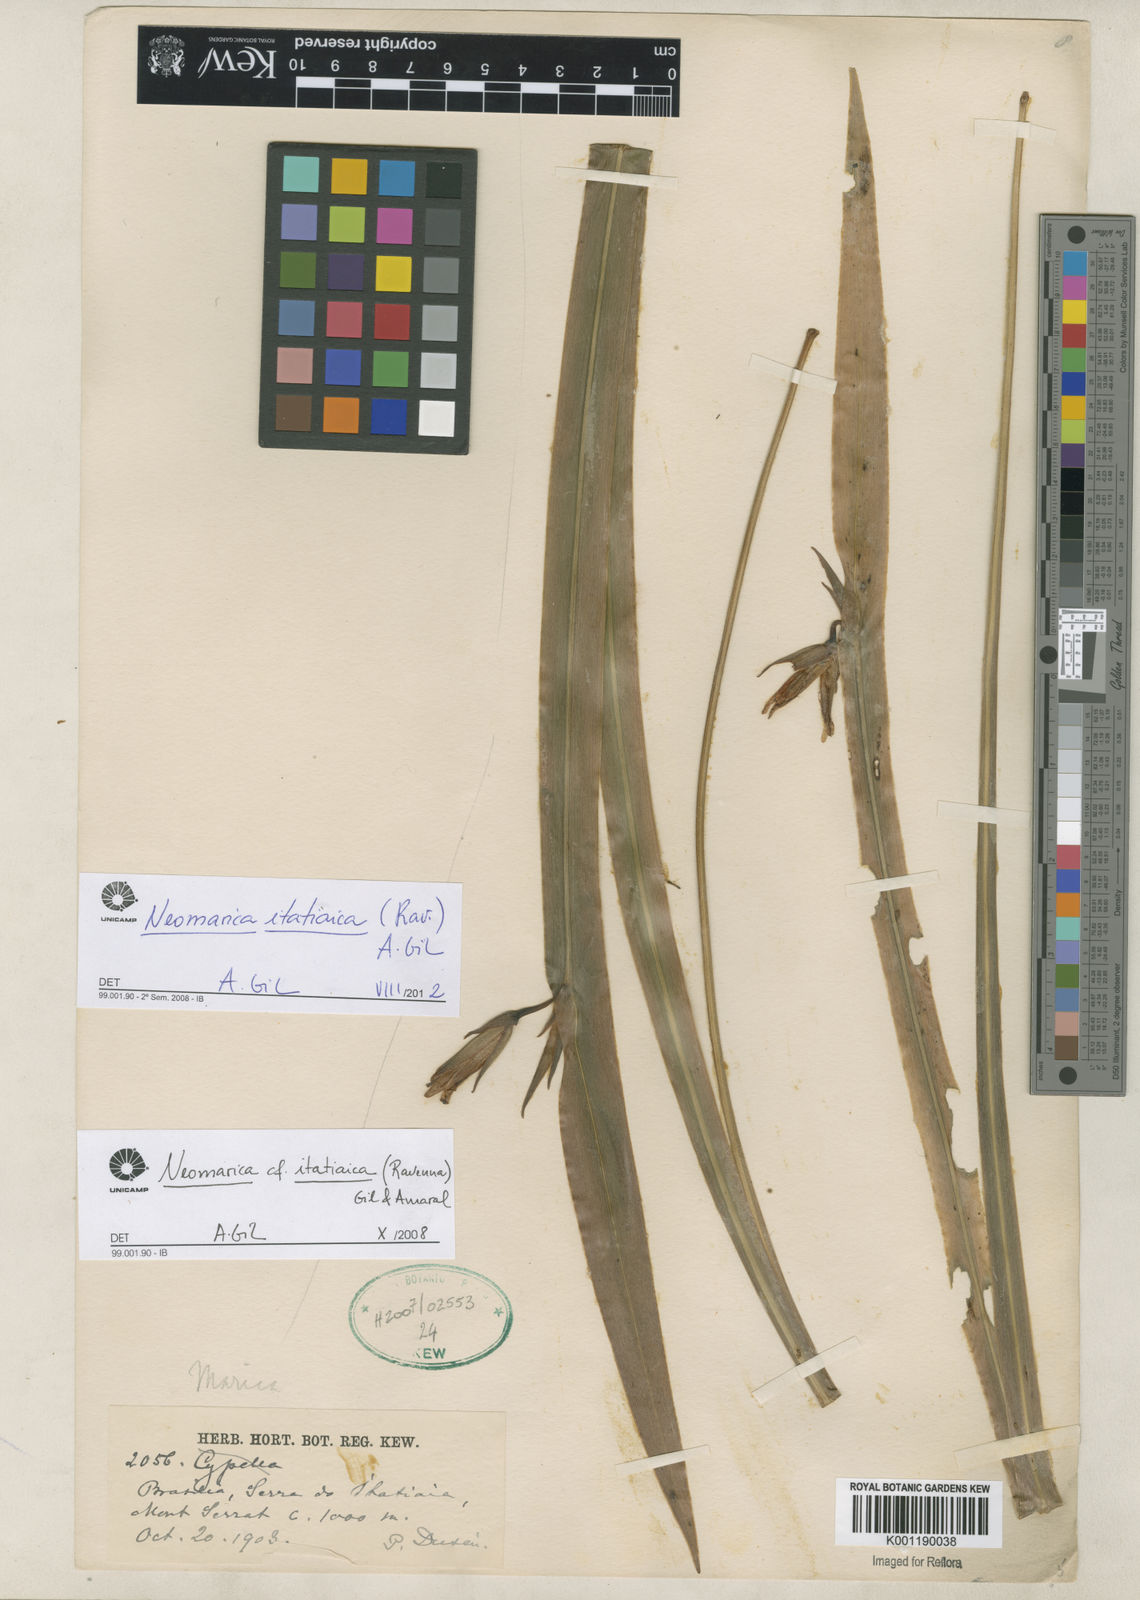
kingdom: Plantae
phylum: Tracheophyta
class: Liliopsida
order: Asparagales
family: Iridaceae
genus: Trimezia
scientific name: Trimezia itatiaica
